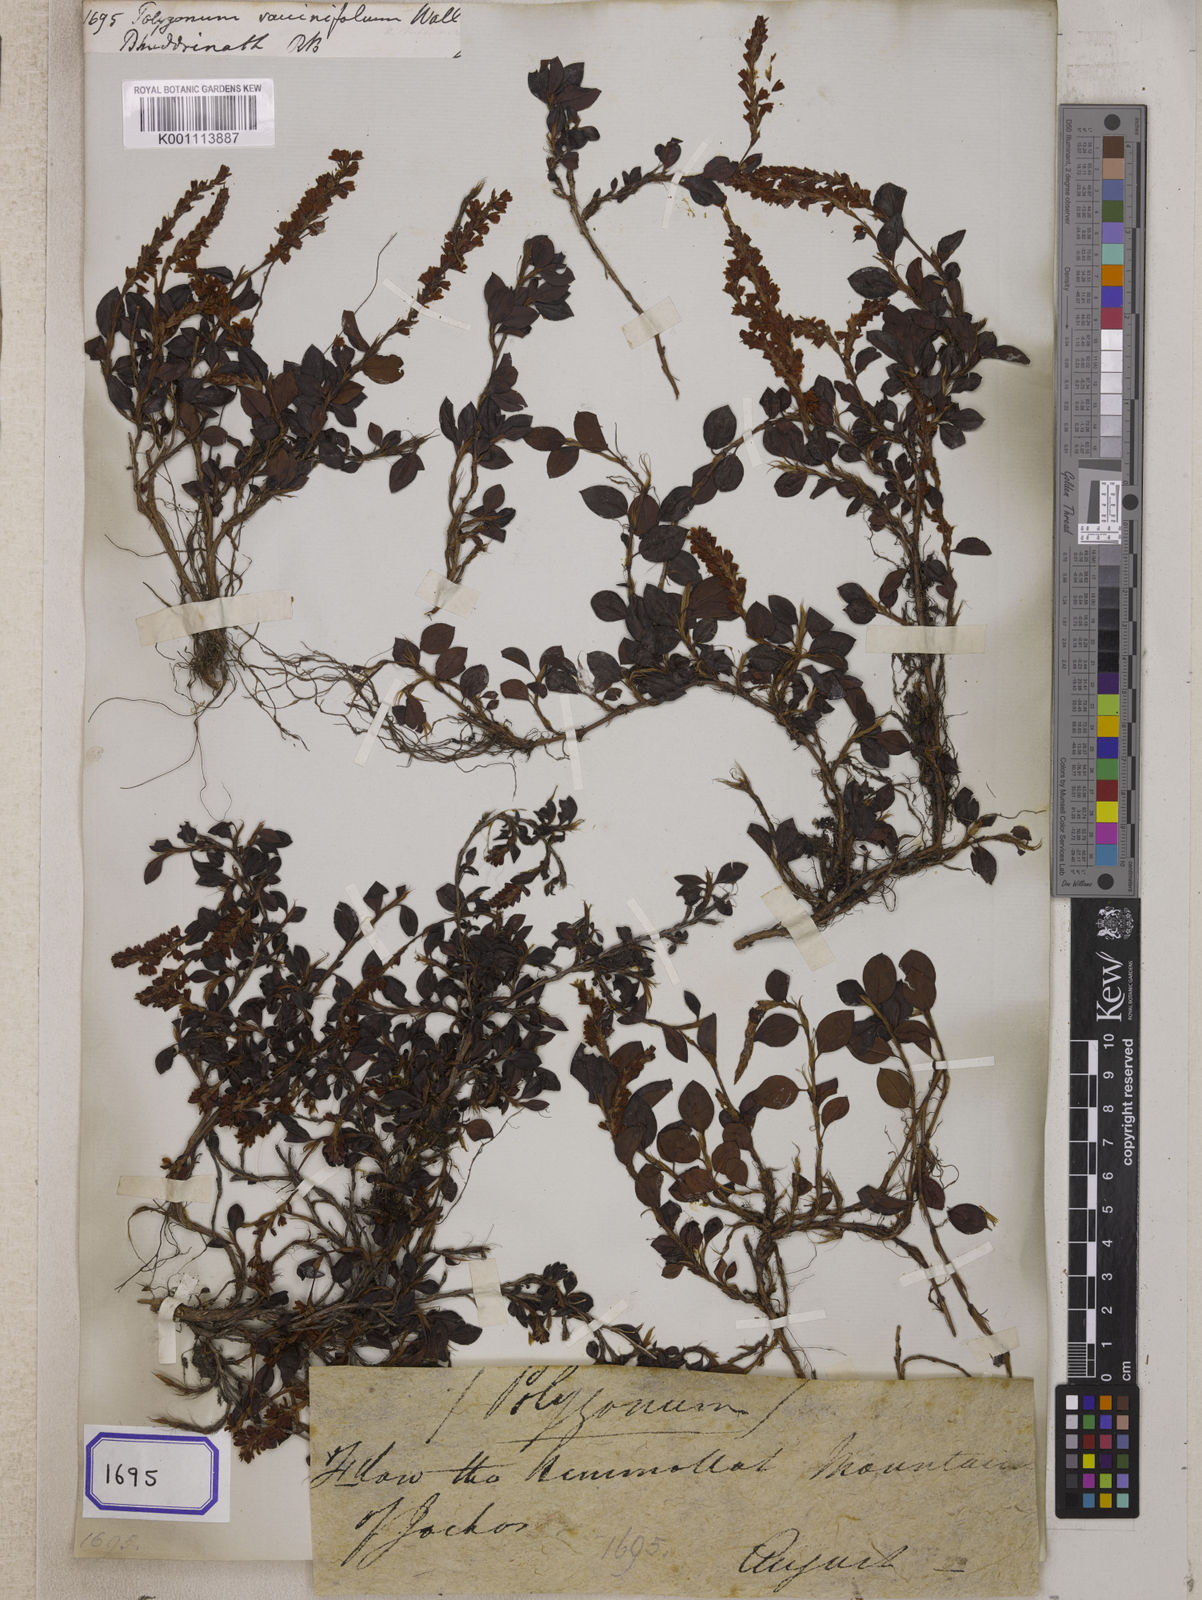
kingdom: Plantae
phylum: Tracheophyta
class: Magnoliopsida
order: Caryophyllales
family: Polygonaceae
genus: Polygonum
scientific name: Polygonum
